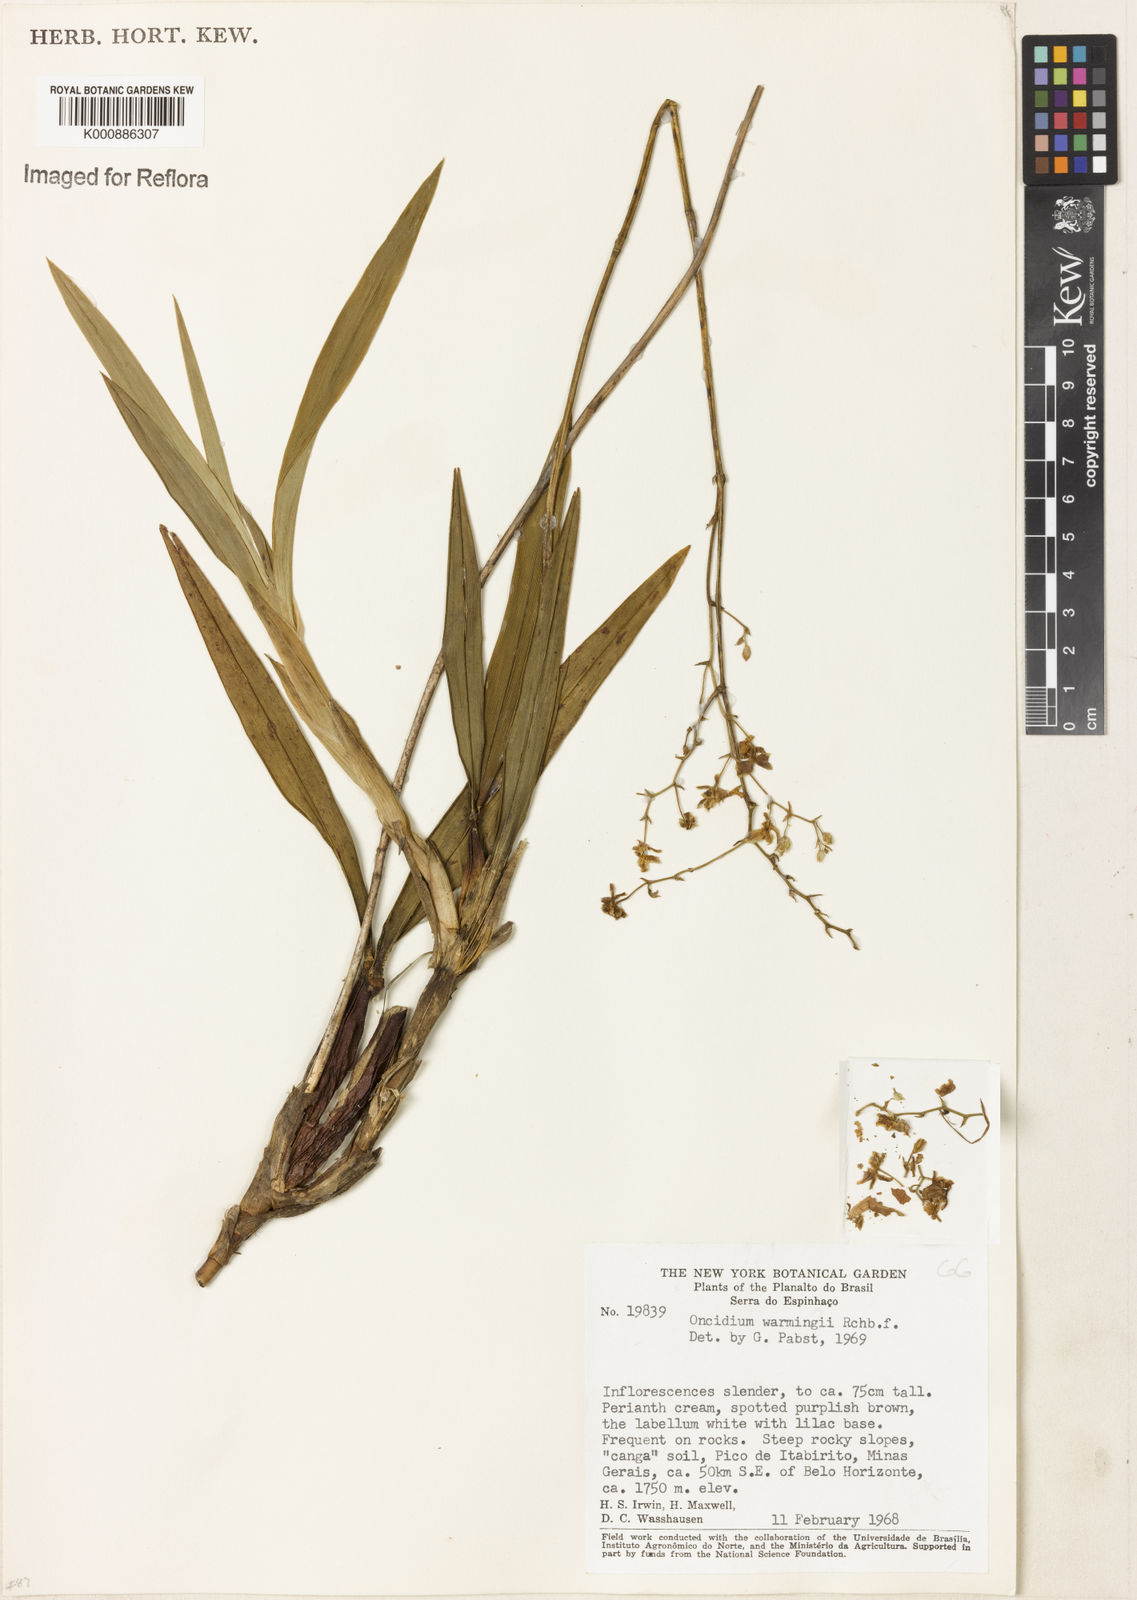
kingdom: Plantae
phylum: Tracheophyta
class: Liliopsida
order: Asparagales
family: Orchidaceae
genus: Gomesa
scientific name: Gomesa warmingii
